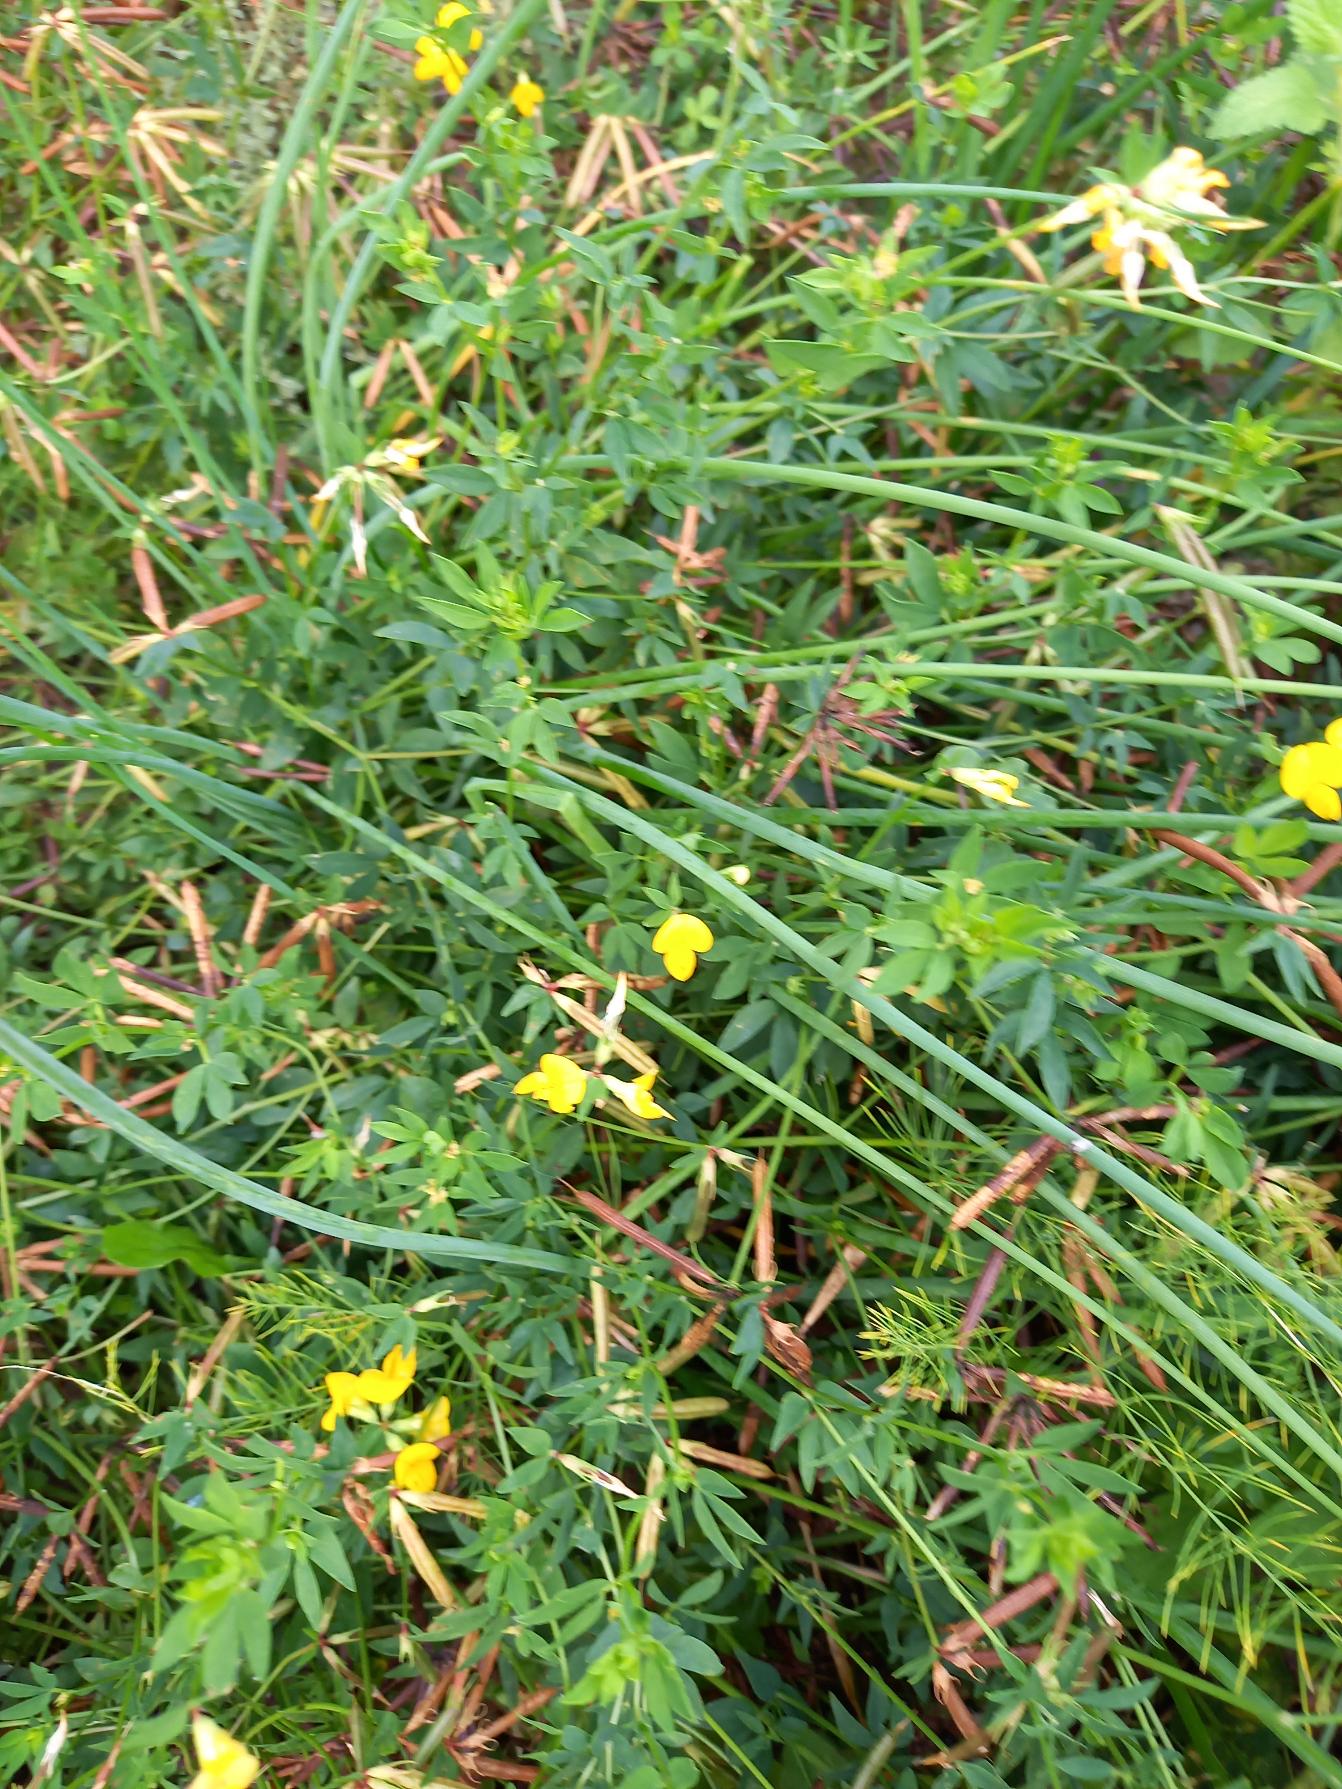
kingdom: Plantae
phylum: Tracheophyta
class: Magnoliopsida
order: Fabales
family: Fabaceae
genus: Lotus
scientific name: Lotus corniculatus
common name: Almindelig kællingetand
